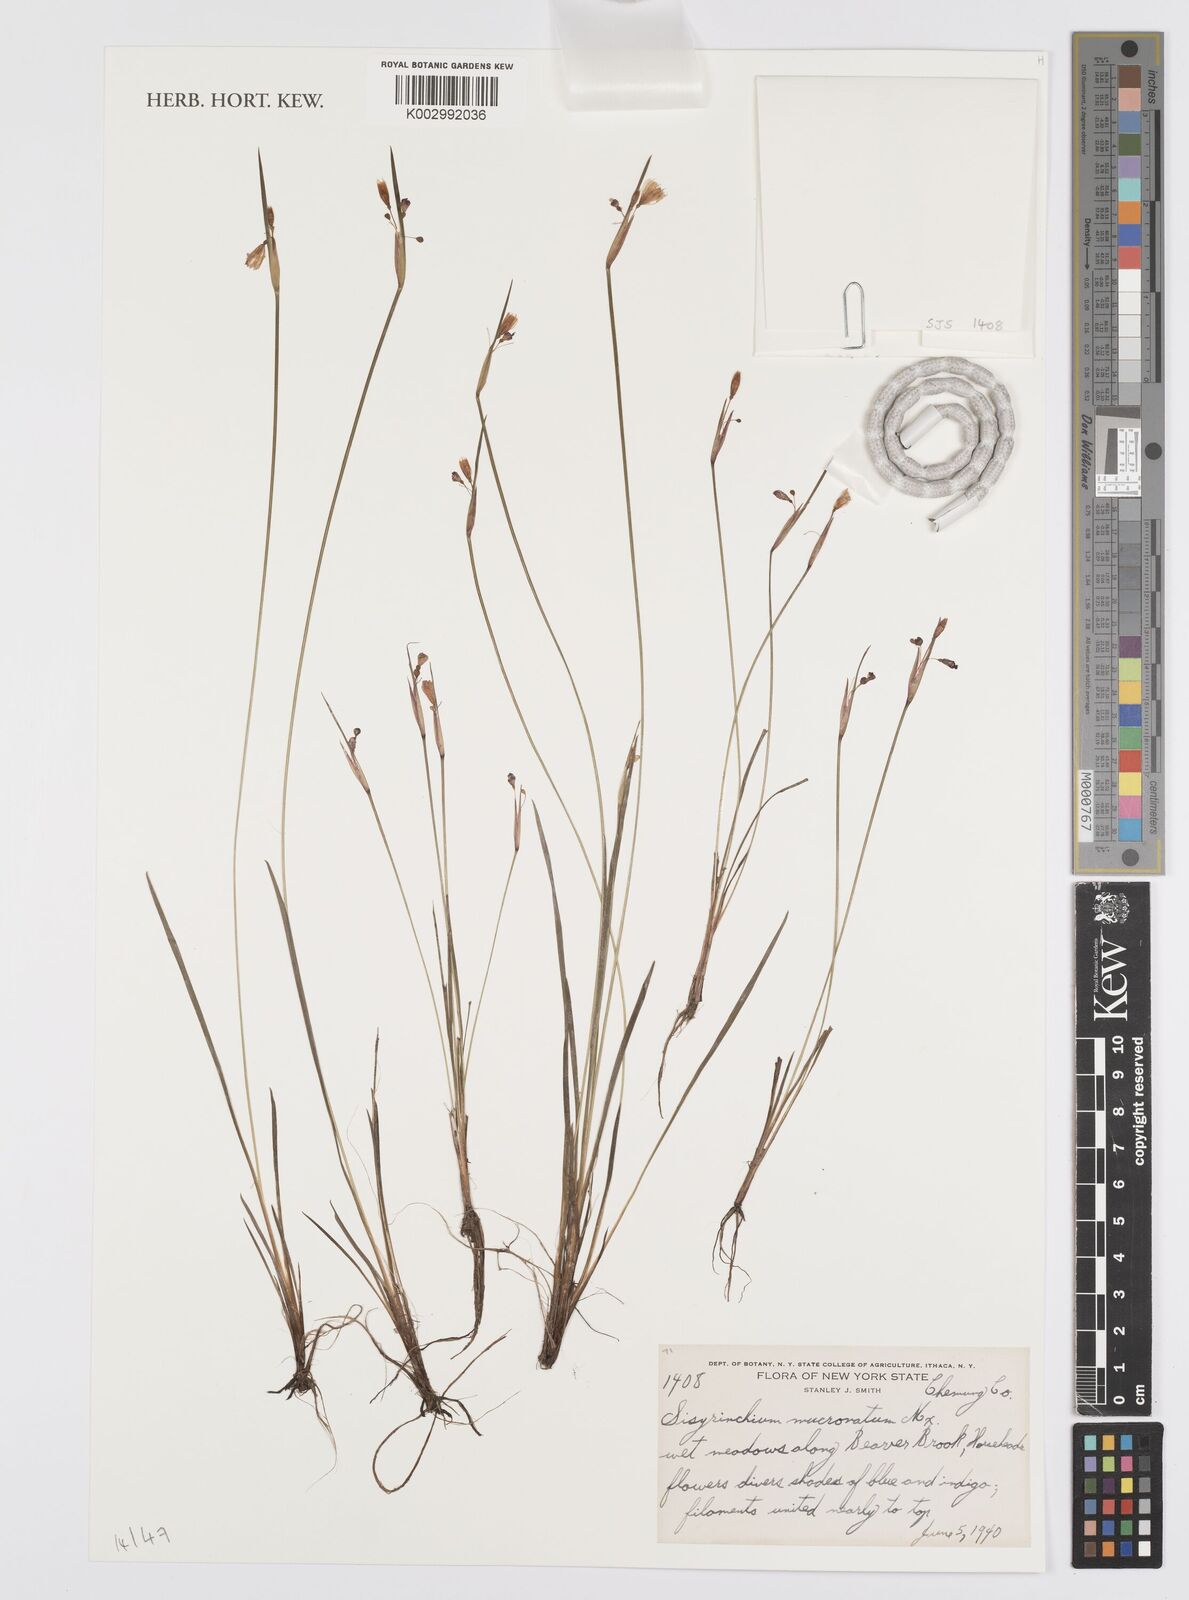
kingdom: Plantae
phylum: Tracheophyta
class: Liliopsida
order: Asparagales
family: Iridaceae
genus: Sisyrinchium
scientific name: Sisyrinchium angustifolium
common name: Narrow-leaf blue-eyed-grass
